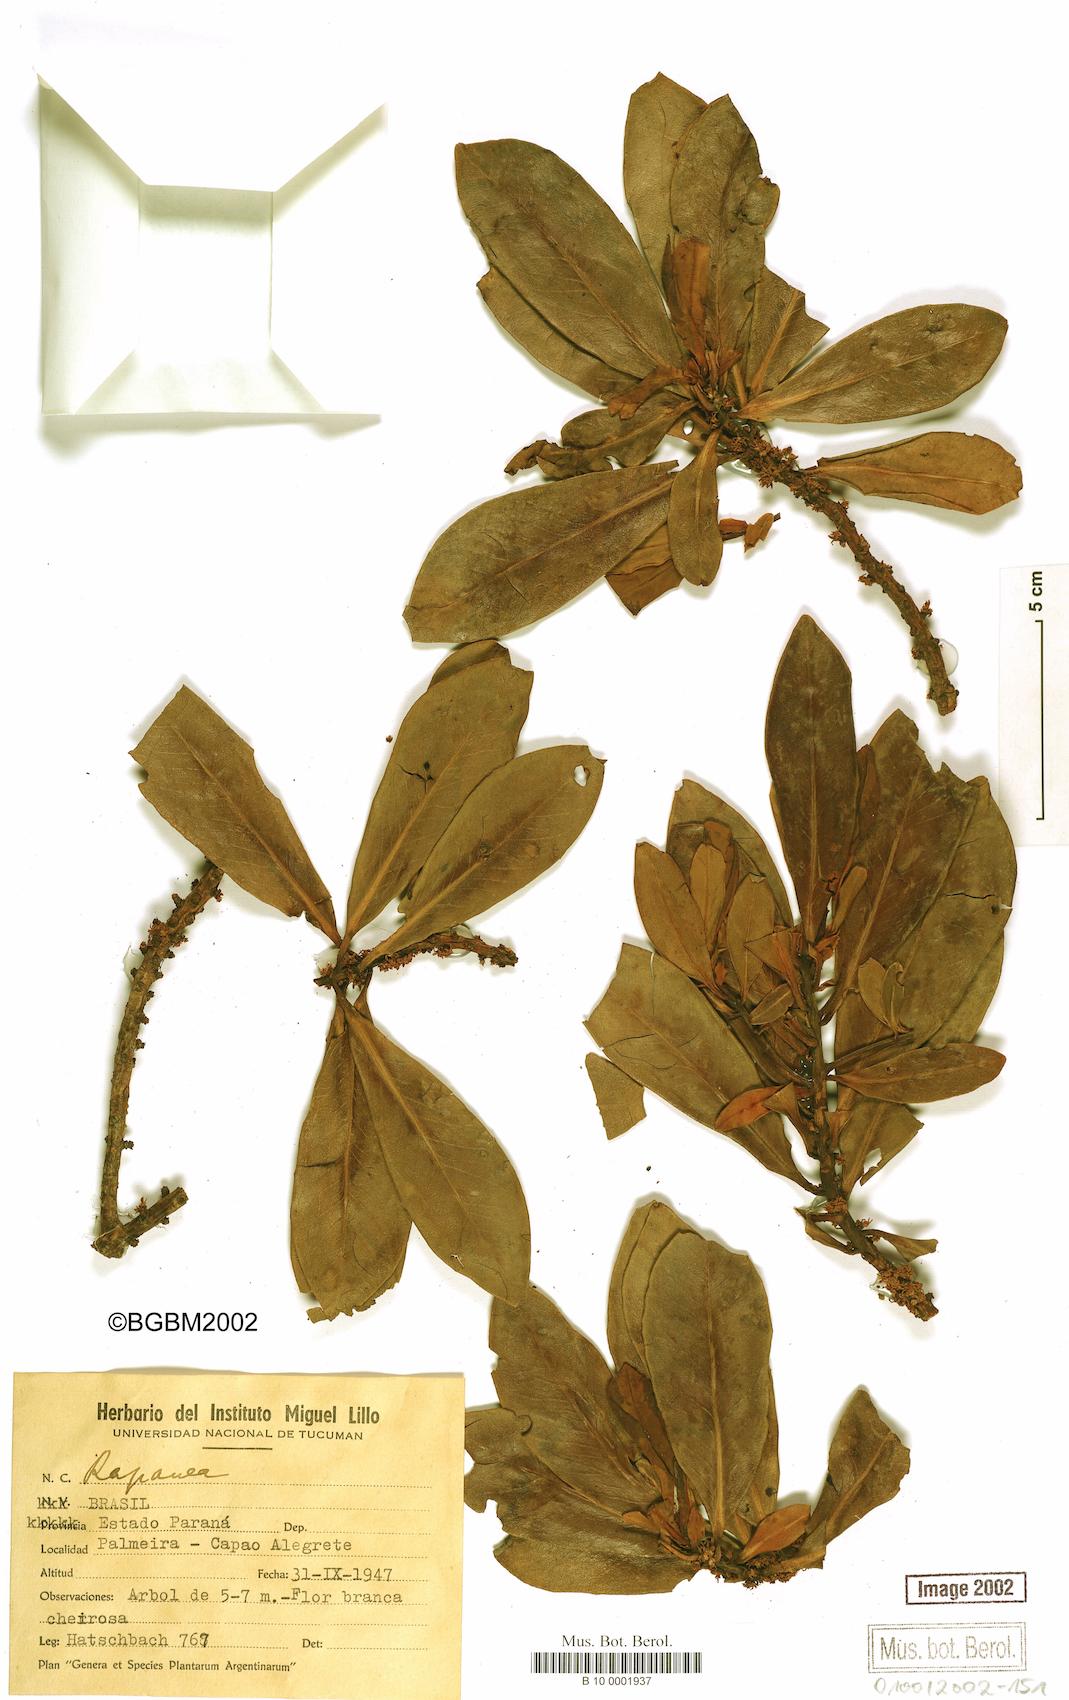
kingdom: Plantae
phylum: Tracheophyta
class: Magnoliopsida
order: Ericales
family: Primulaceae
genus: Myrsine
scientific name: Myrsine
